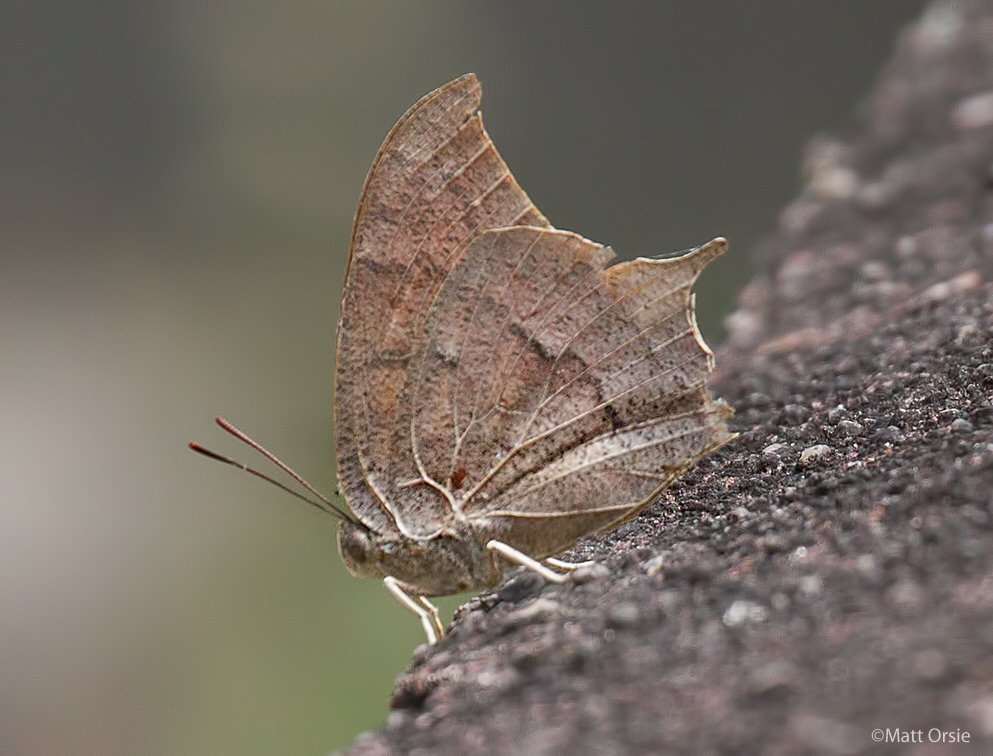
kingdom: Animalia
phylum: Arthropoda
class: Insecta
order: Lepidoptera
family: Nymphalidae
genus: Anaea
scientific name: Anaea andria
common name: Goatweed Leafwing
